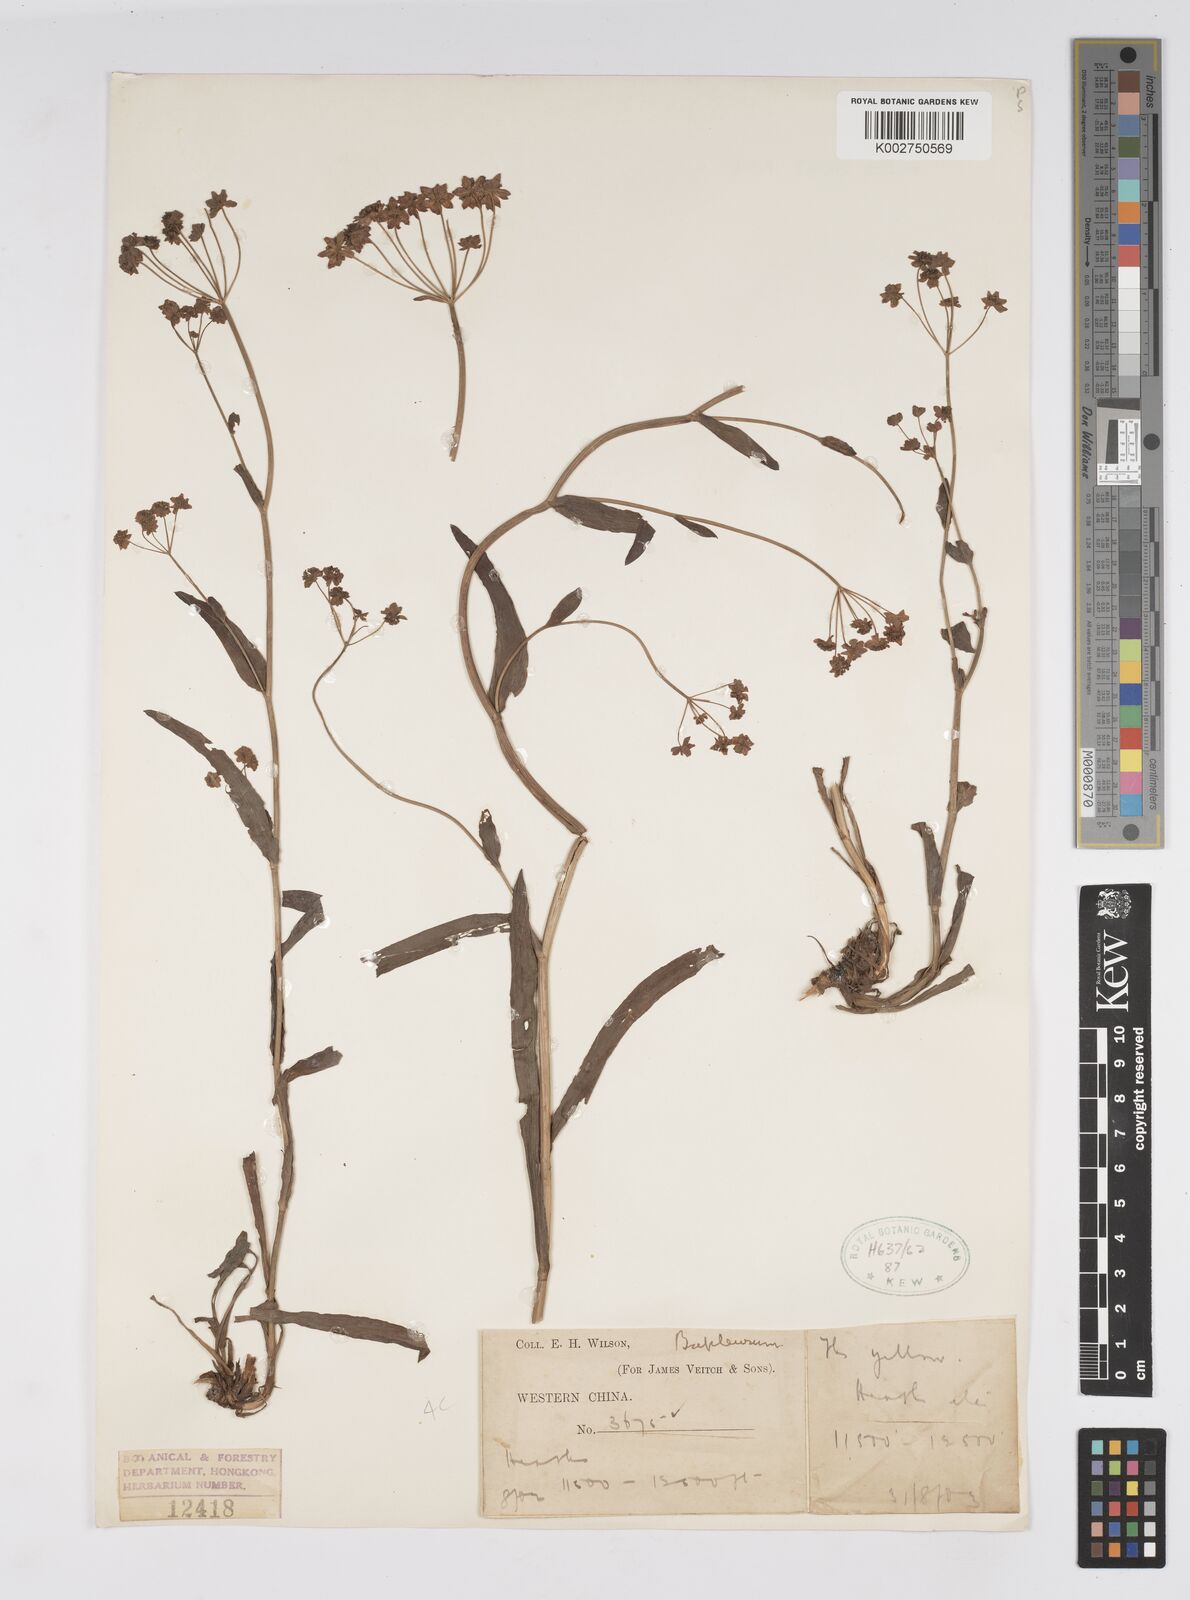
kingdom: Plantae
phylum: Tracheophyta
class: Magnoliopsida
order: Apiales
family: Apiaceae
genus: Bupleurum
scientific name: Bupleurum
